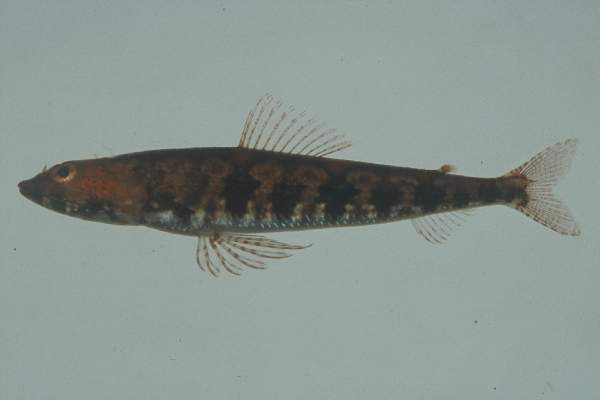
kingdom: Animalia
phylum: Chordata
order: Aulopiformes
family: Synodontidae
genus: Synodus
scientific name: Synodus binotatus
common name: Twospot lizardfish
